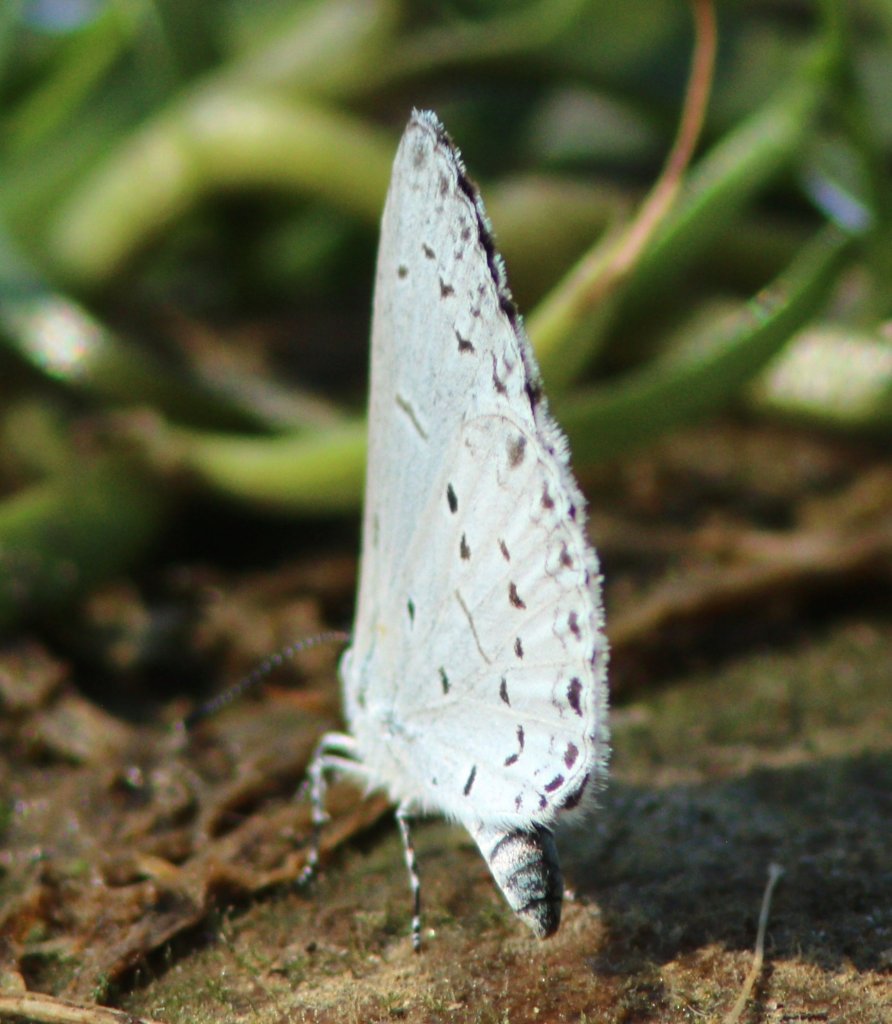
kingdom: Animalia
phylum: Arthropoda
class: Insecta
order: Lepidoptera
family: Lycaenidae
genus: Cyaniris
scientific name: Cyaniris neglecta
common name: Summer Azure
